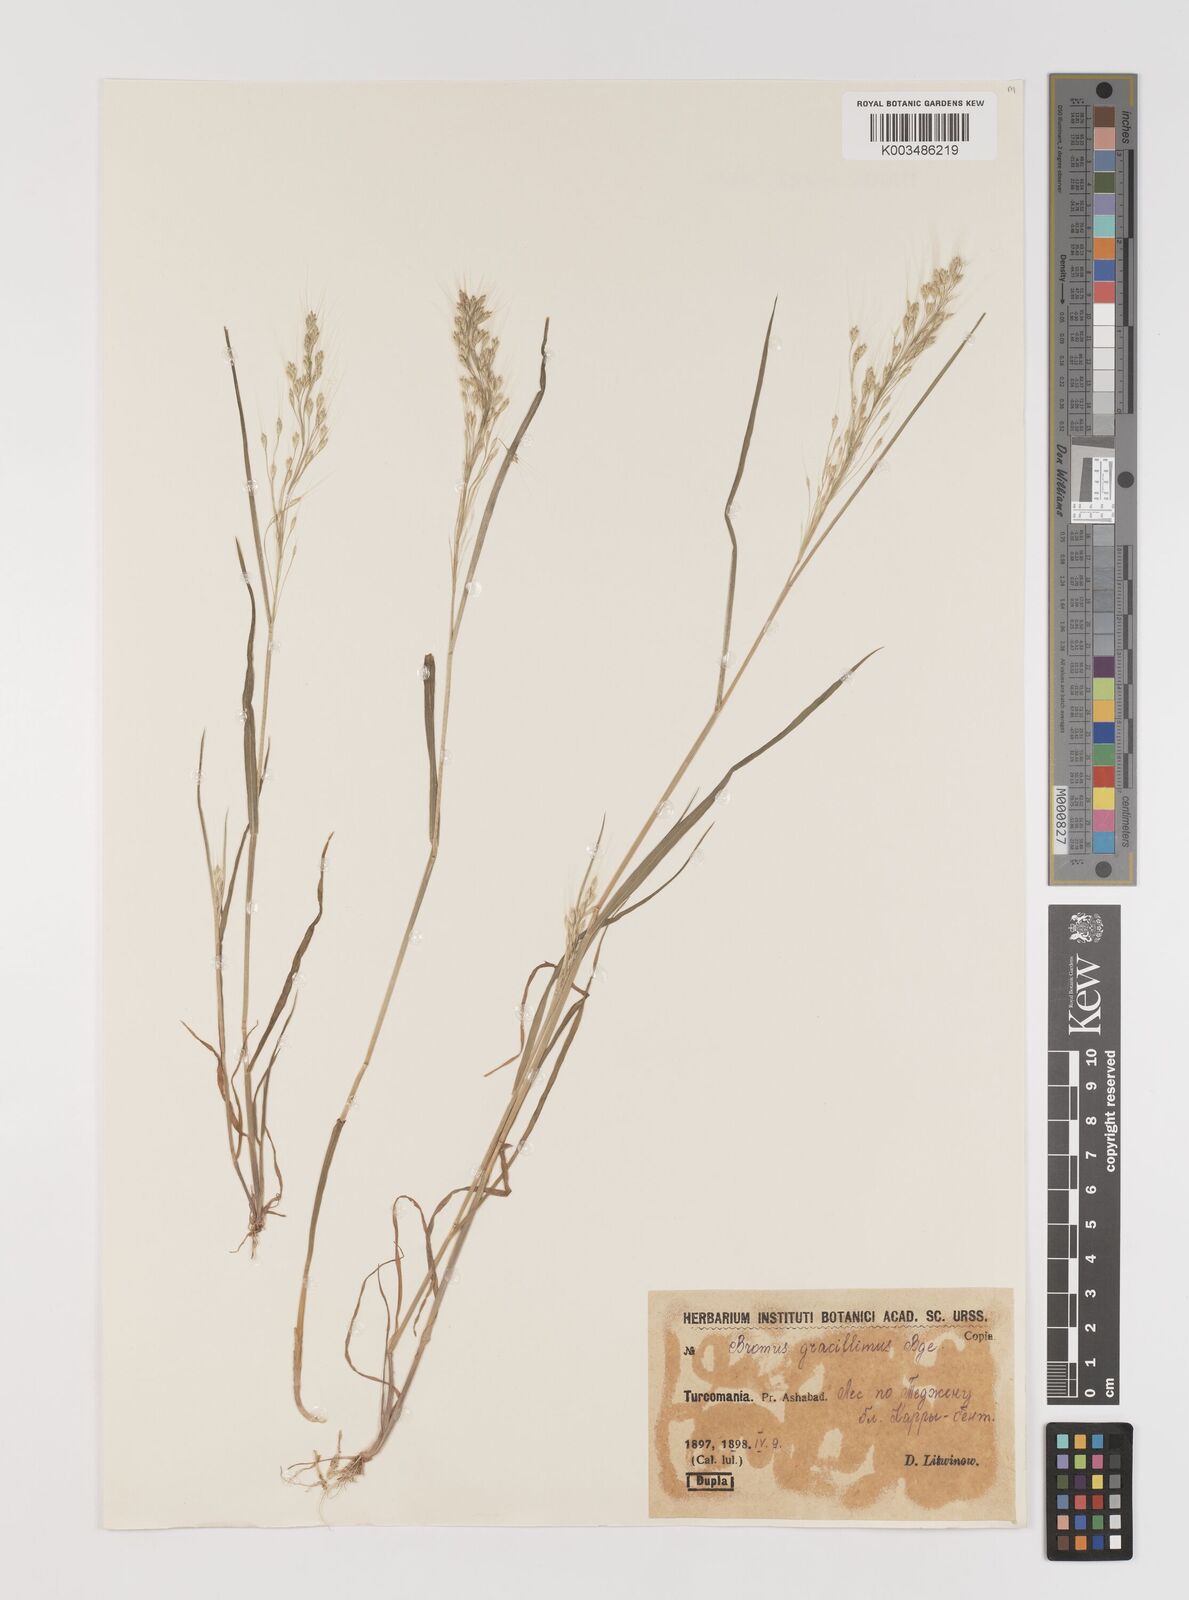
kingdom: Plantae
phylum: Tracheophyta
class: Liliopsida
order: Poales
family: Poaceae
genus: Bromus
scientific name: Bromus gracillimus
